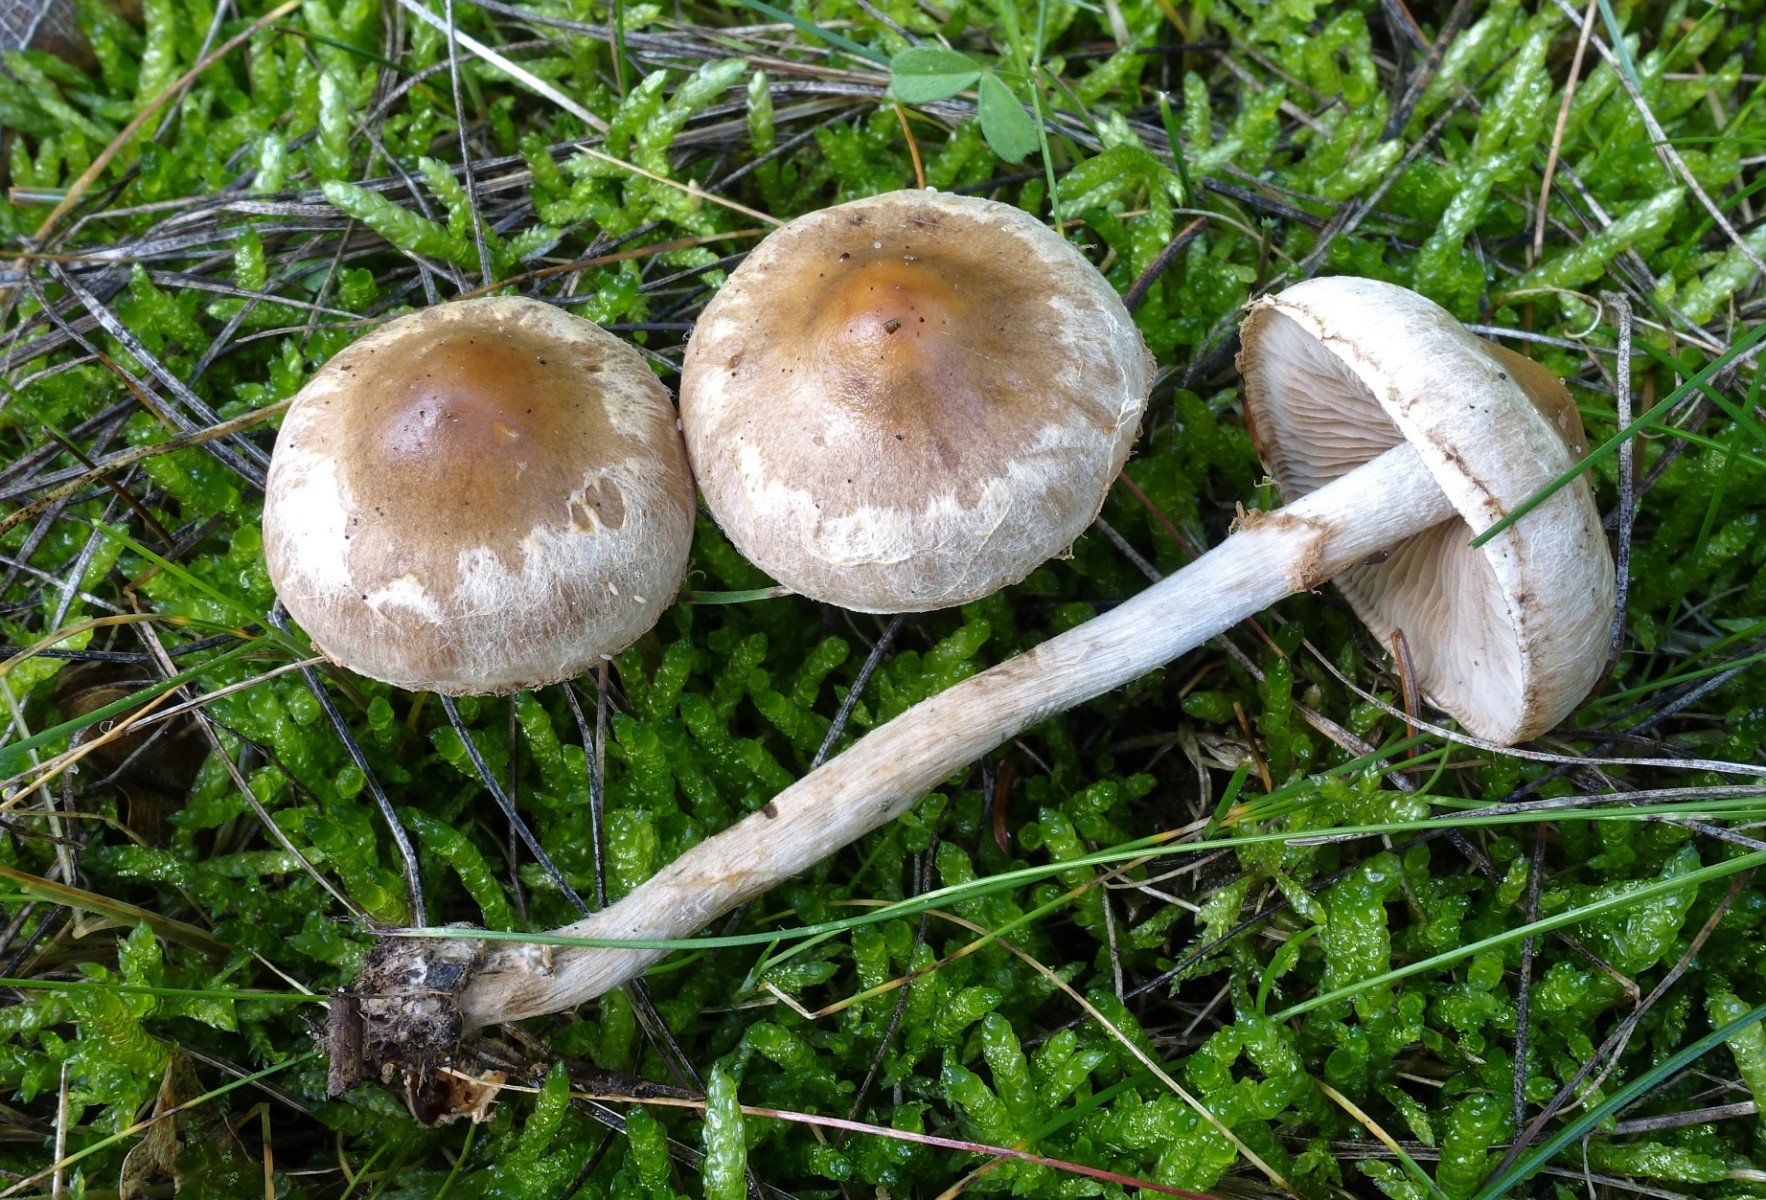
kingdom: Fungi
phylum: Basidiomycota
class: Agaricomycetes
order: Agaricales
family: Hymenogastraceae
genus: Hebeloma
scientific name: Hebeloma mesophaeum
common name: lerbrun tåreblad
